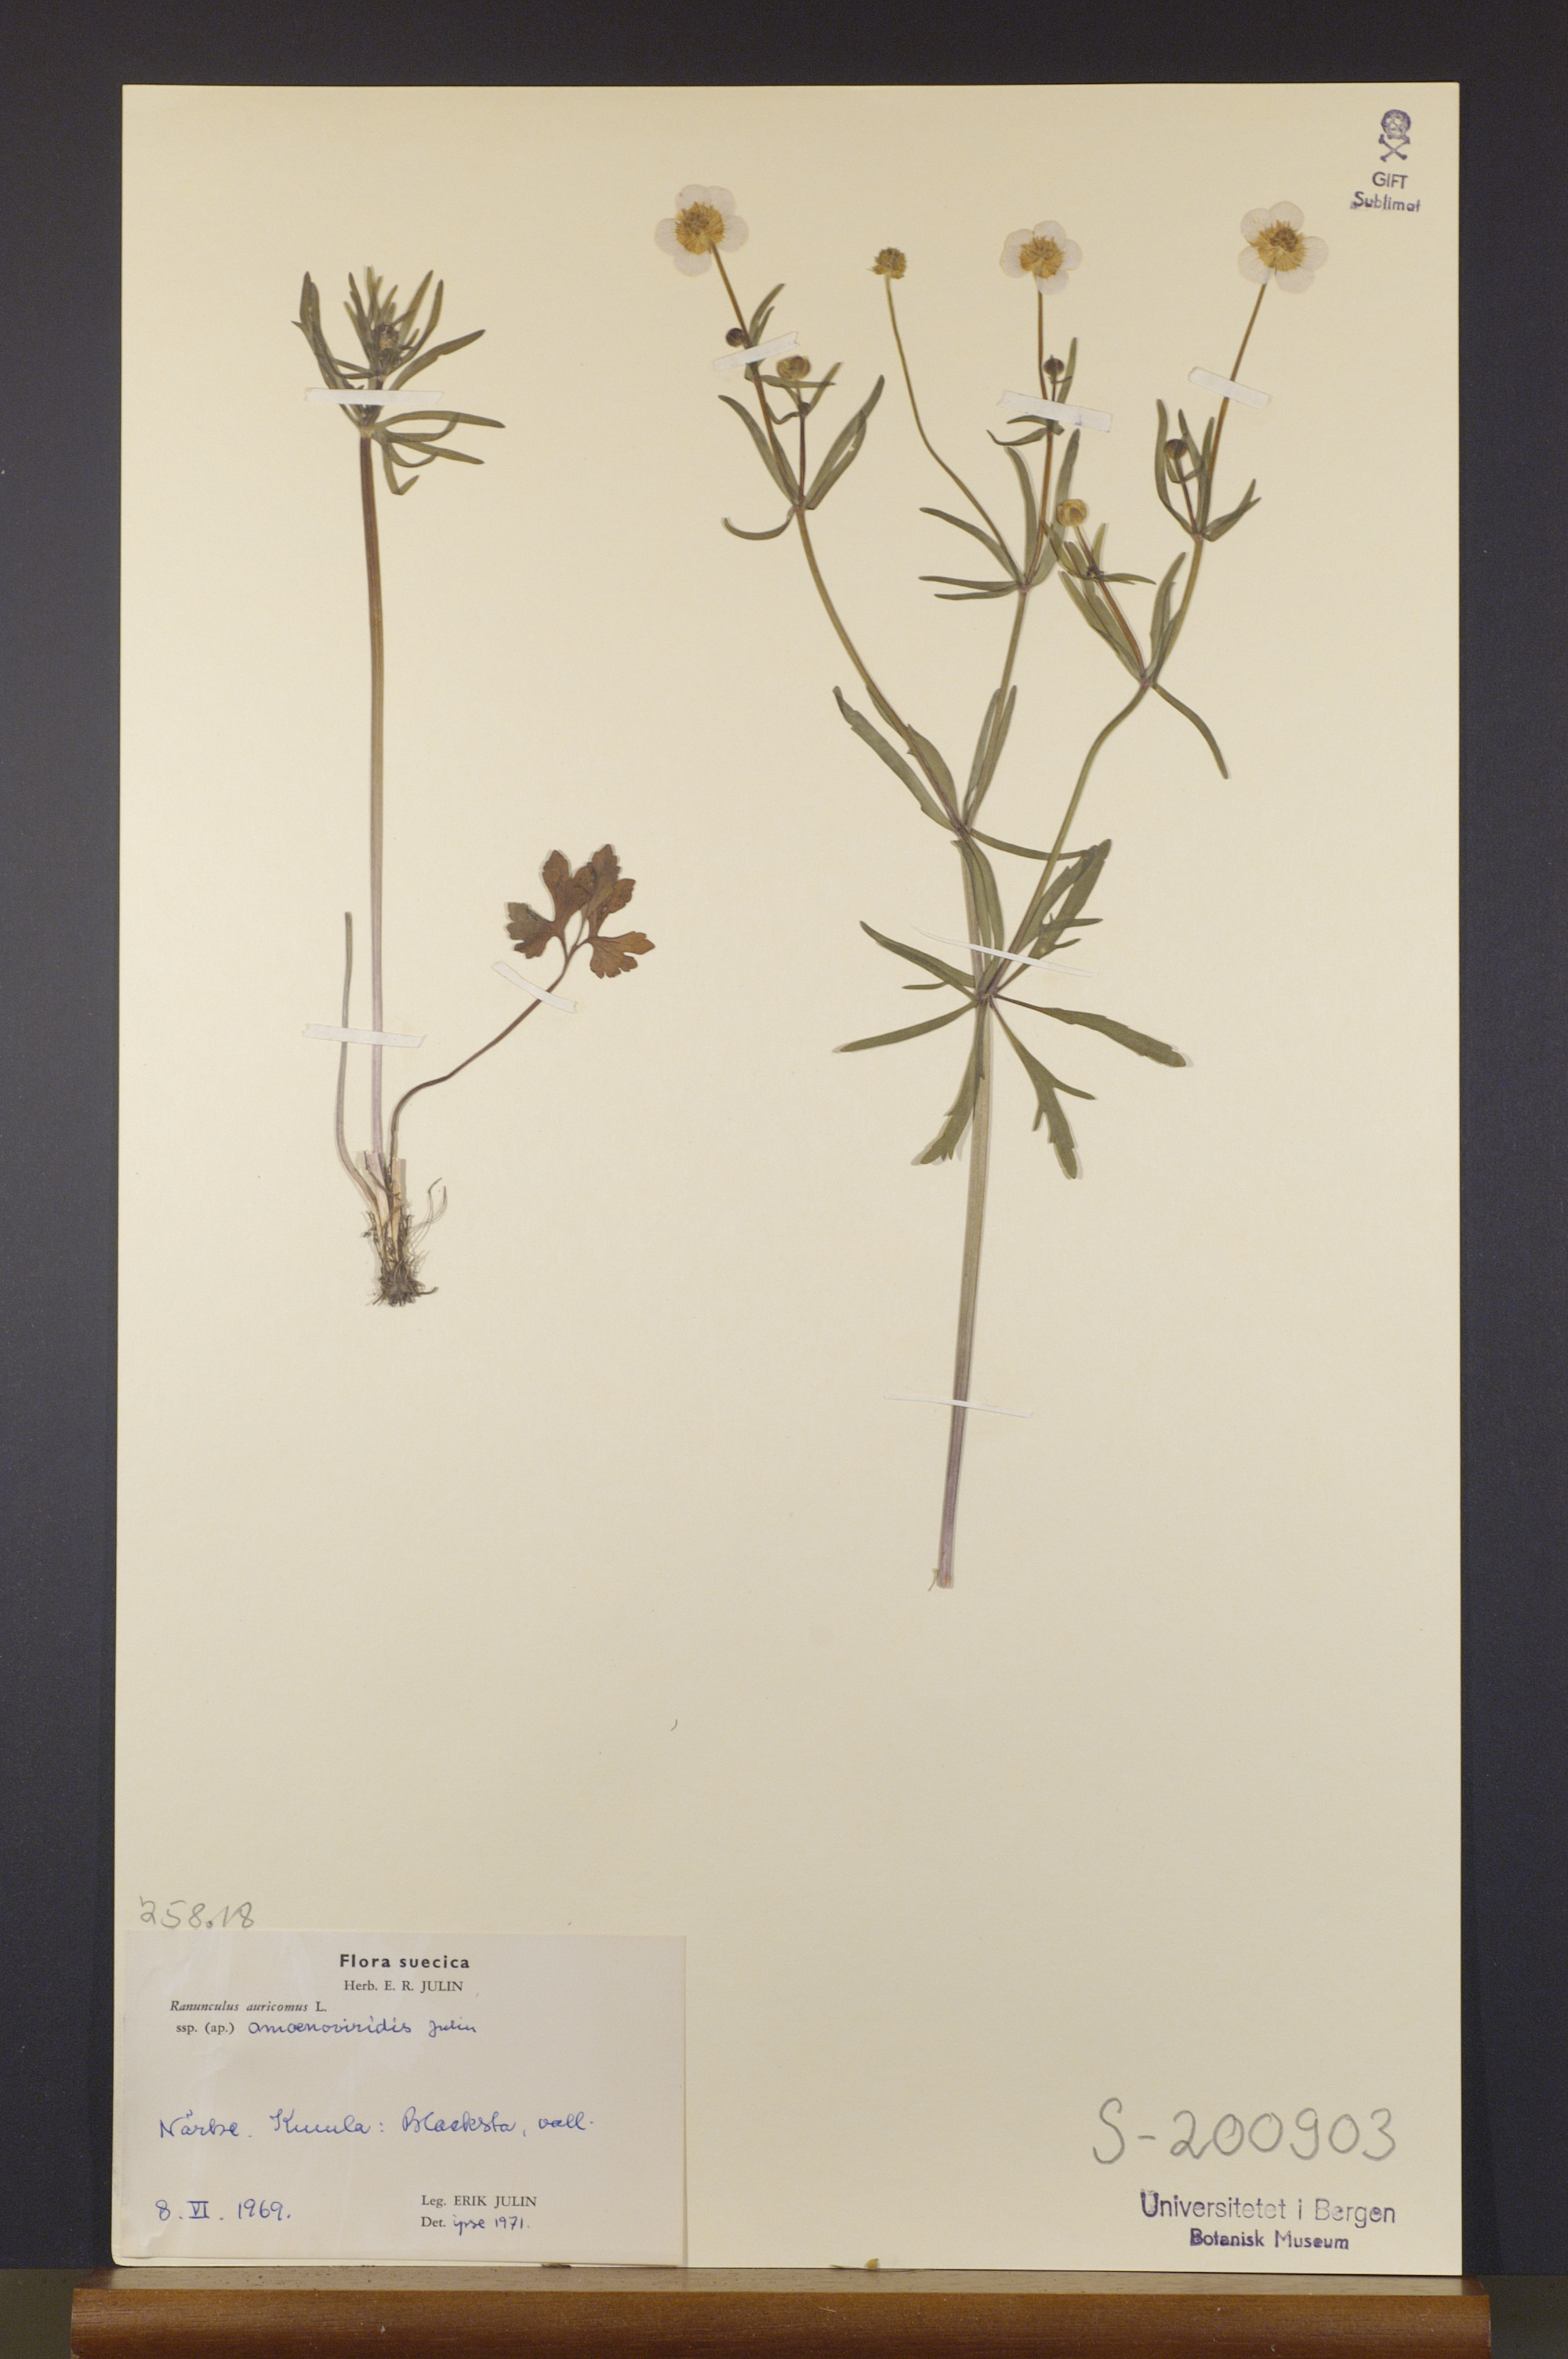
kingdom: Plantae
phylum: Tracheophyta
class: Magnoliopsida
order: Ranunculales
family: Ranunculaceae
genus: Ranunculus
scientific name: Ranunculus amoenoviridis
